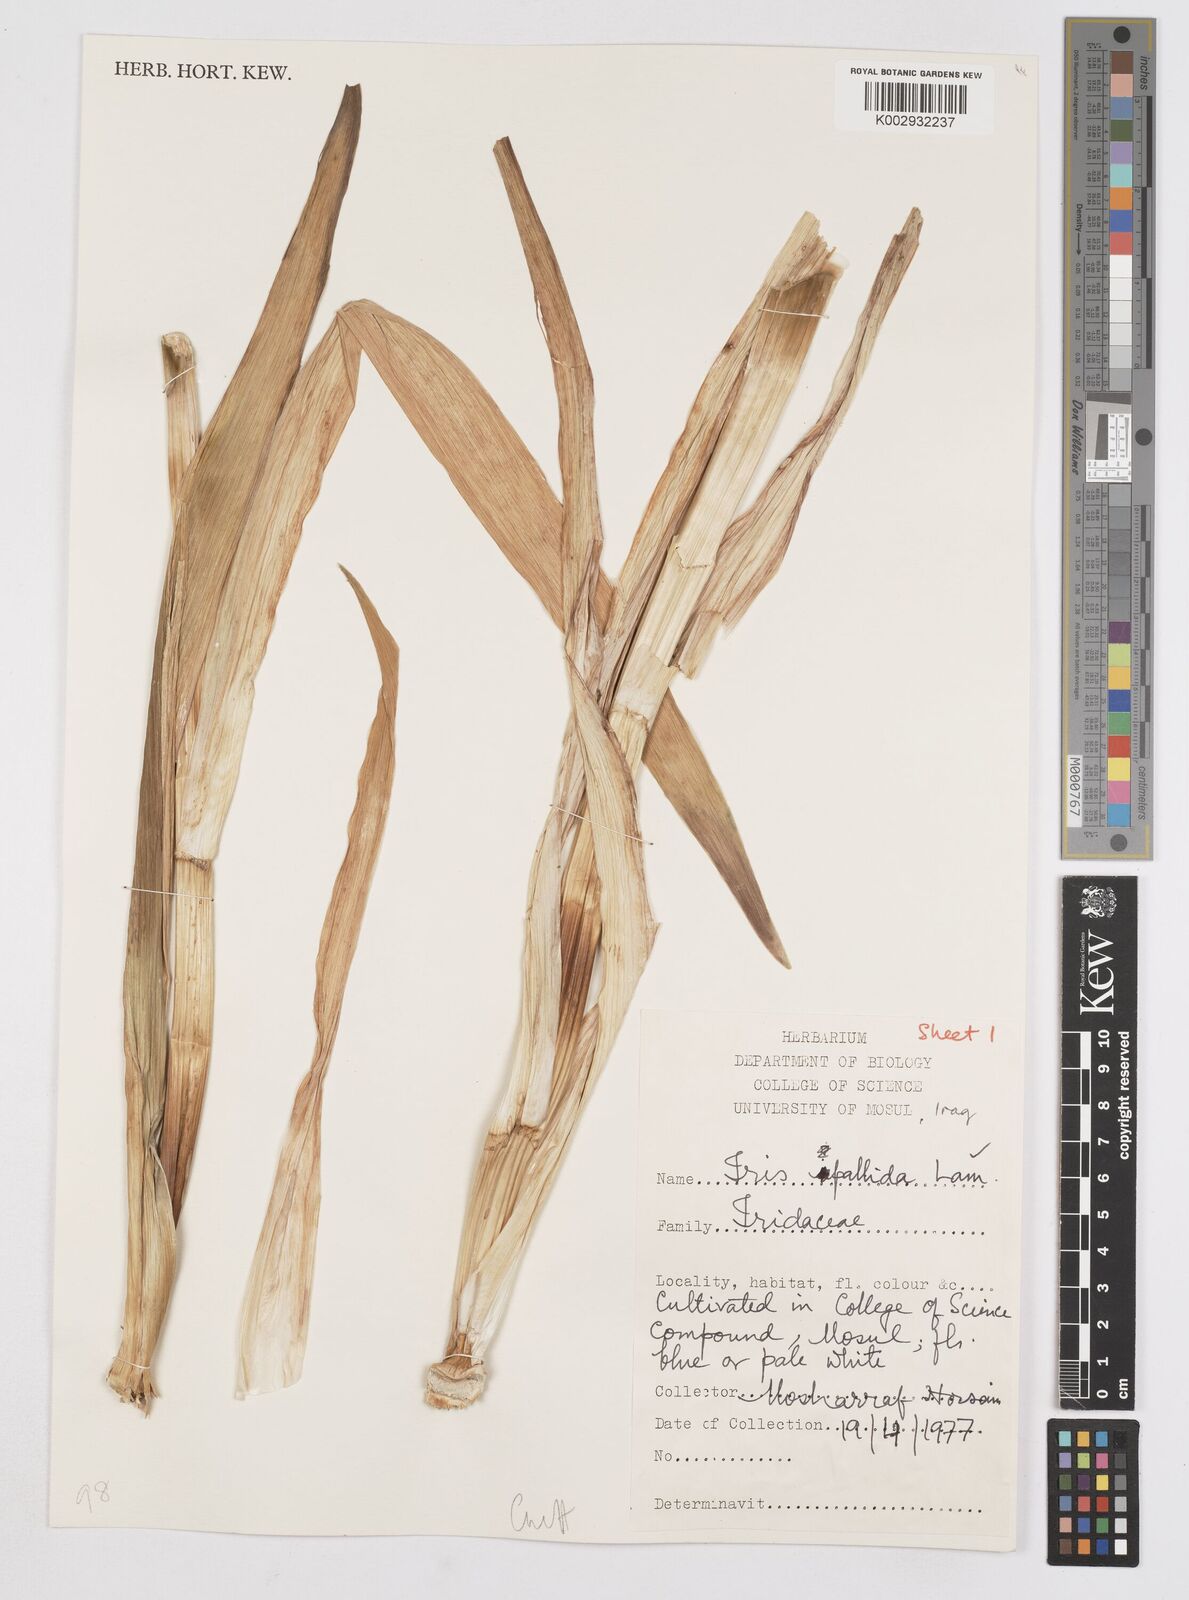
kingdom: Plantae
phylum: Tracheophyta
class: Liliopsida
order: Asparagales
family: Iridaceae
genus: Iris
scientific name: Iris pallida
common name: Sweet iris
